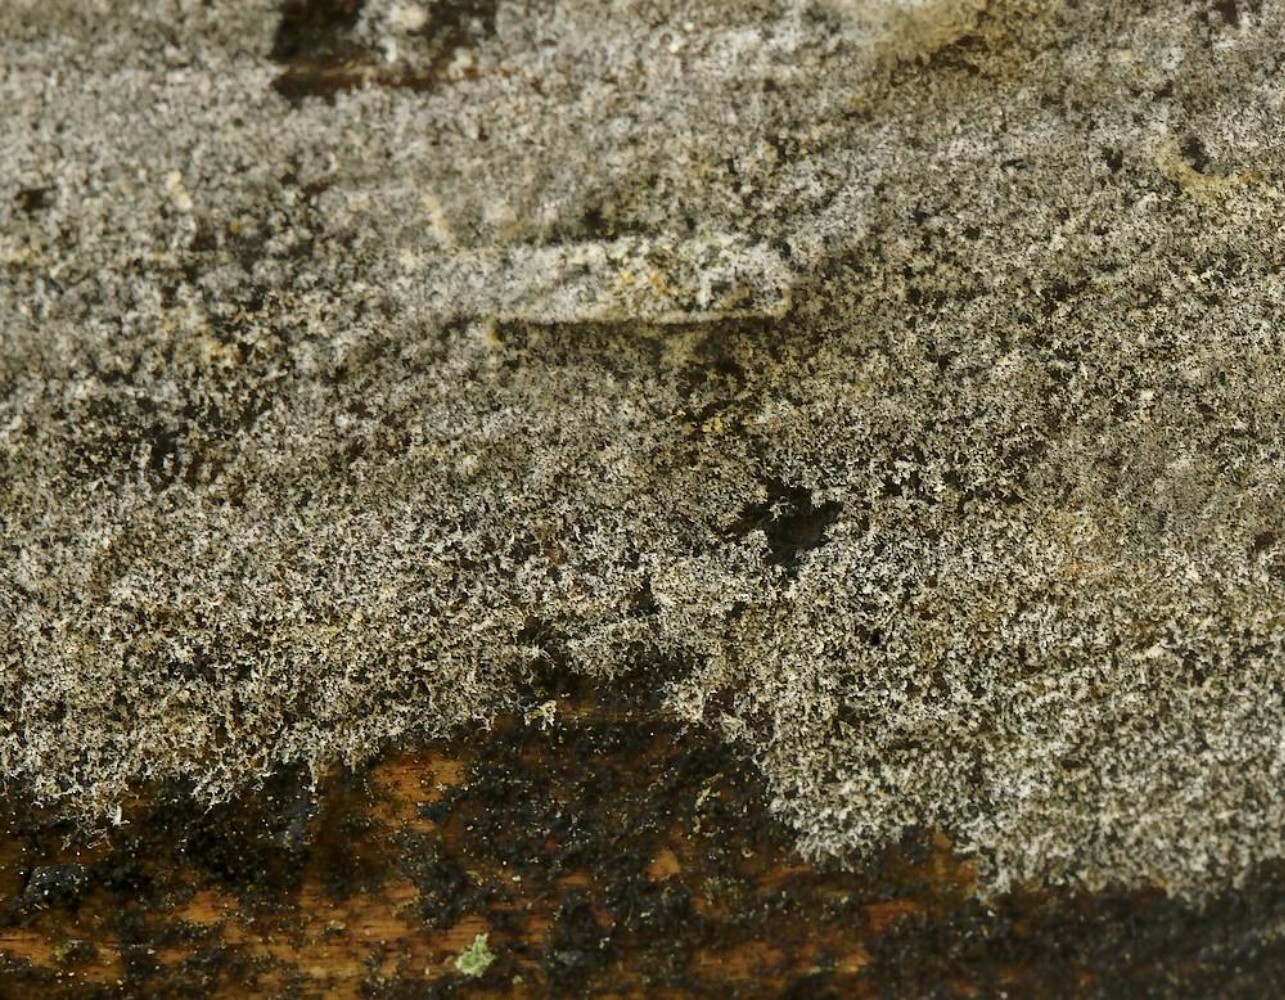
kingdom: Fungi
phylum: Basidiomycota
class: Agaricomycetes
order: Cantharellales
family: Botryobasidiaceae
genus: Botryobasidium
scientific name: Botryobasidium medium
